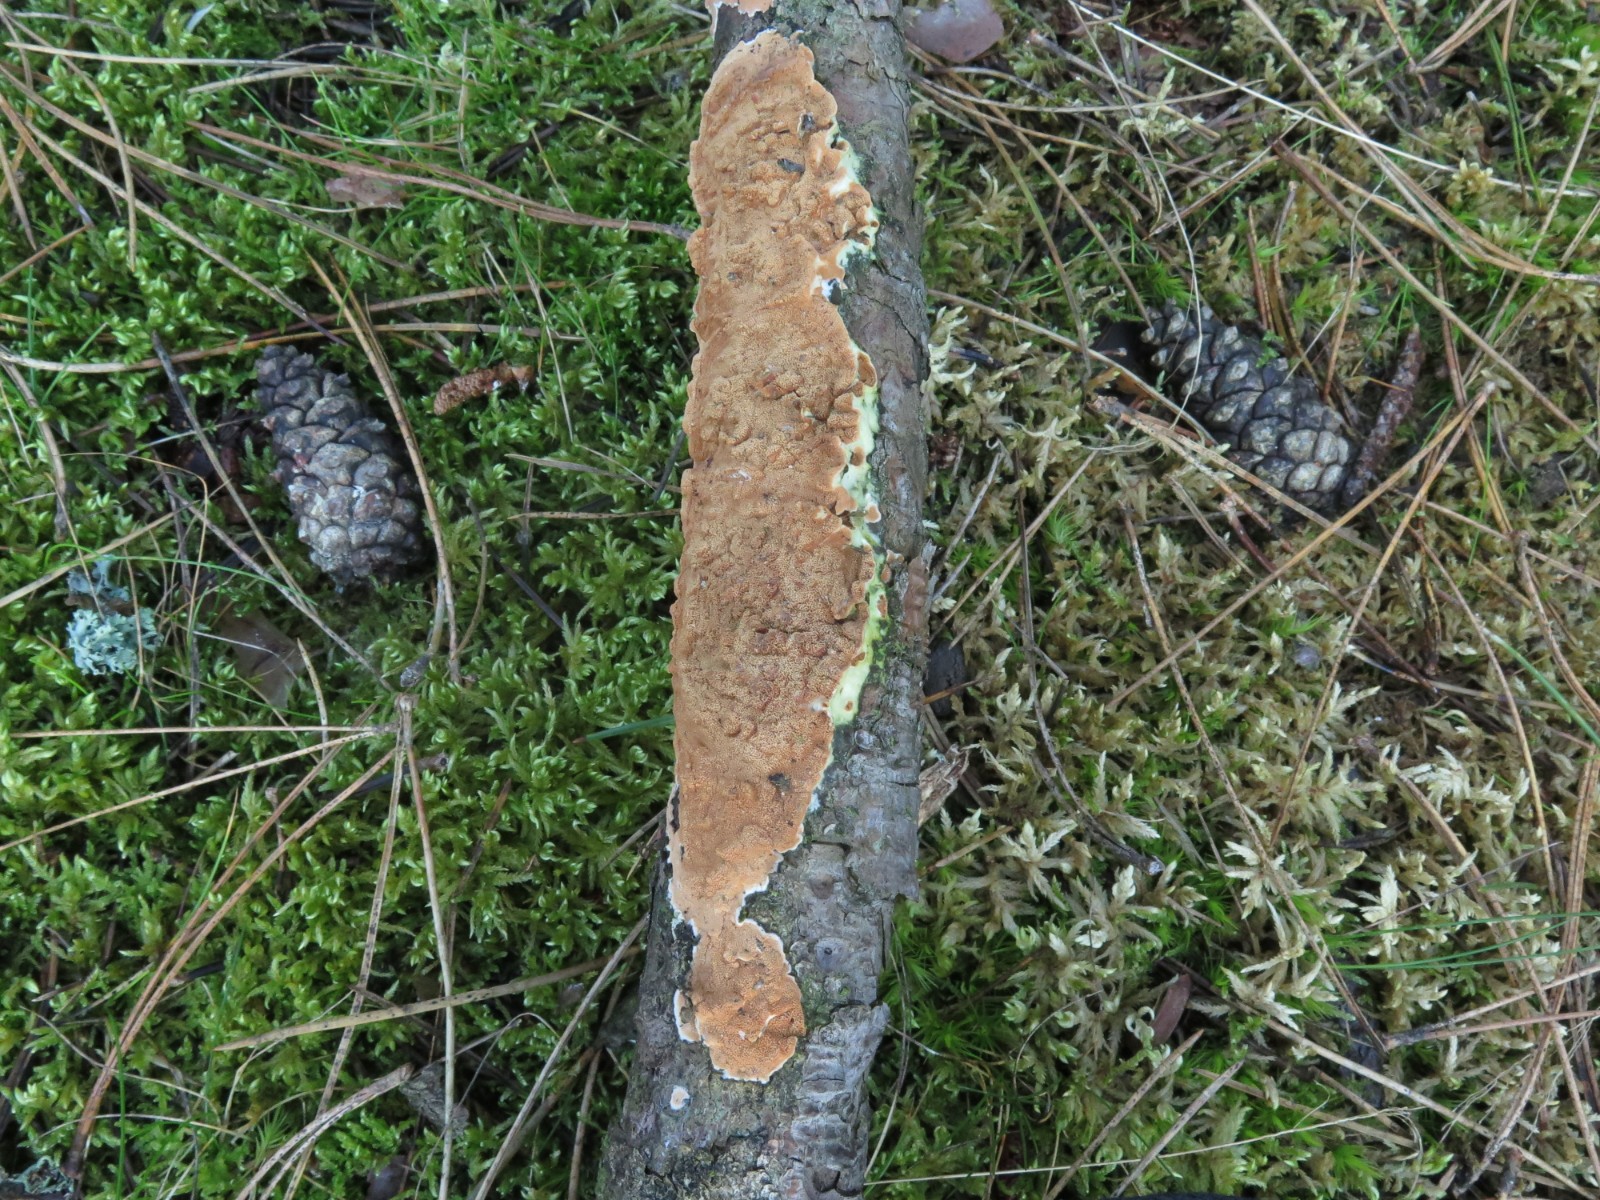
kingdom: Fungi
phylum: Basidiomycota
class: Agaricomycetes
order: Polyporales
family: Irpicaceae
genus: Meruliopsis
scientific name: Meruliopsis taxicola
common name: purpurbrun foldporesvamp
